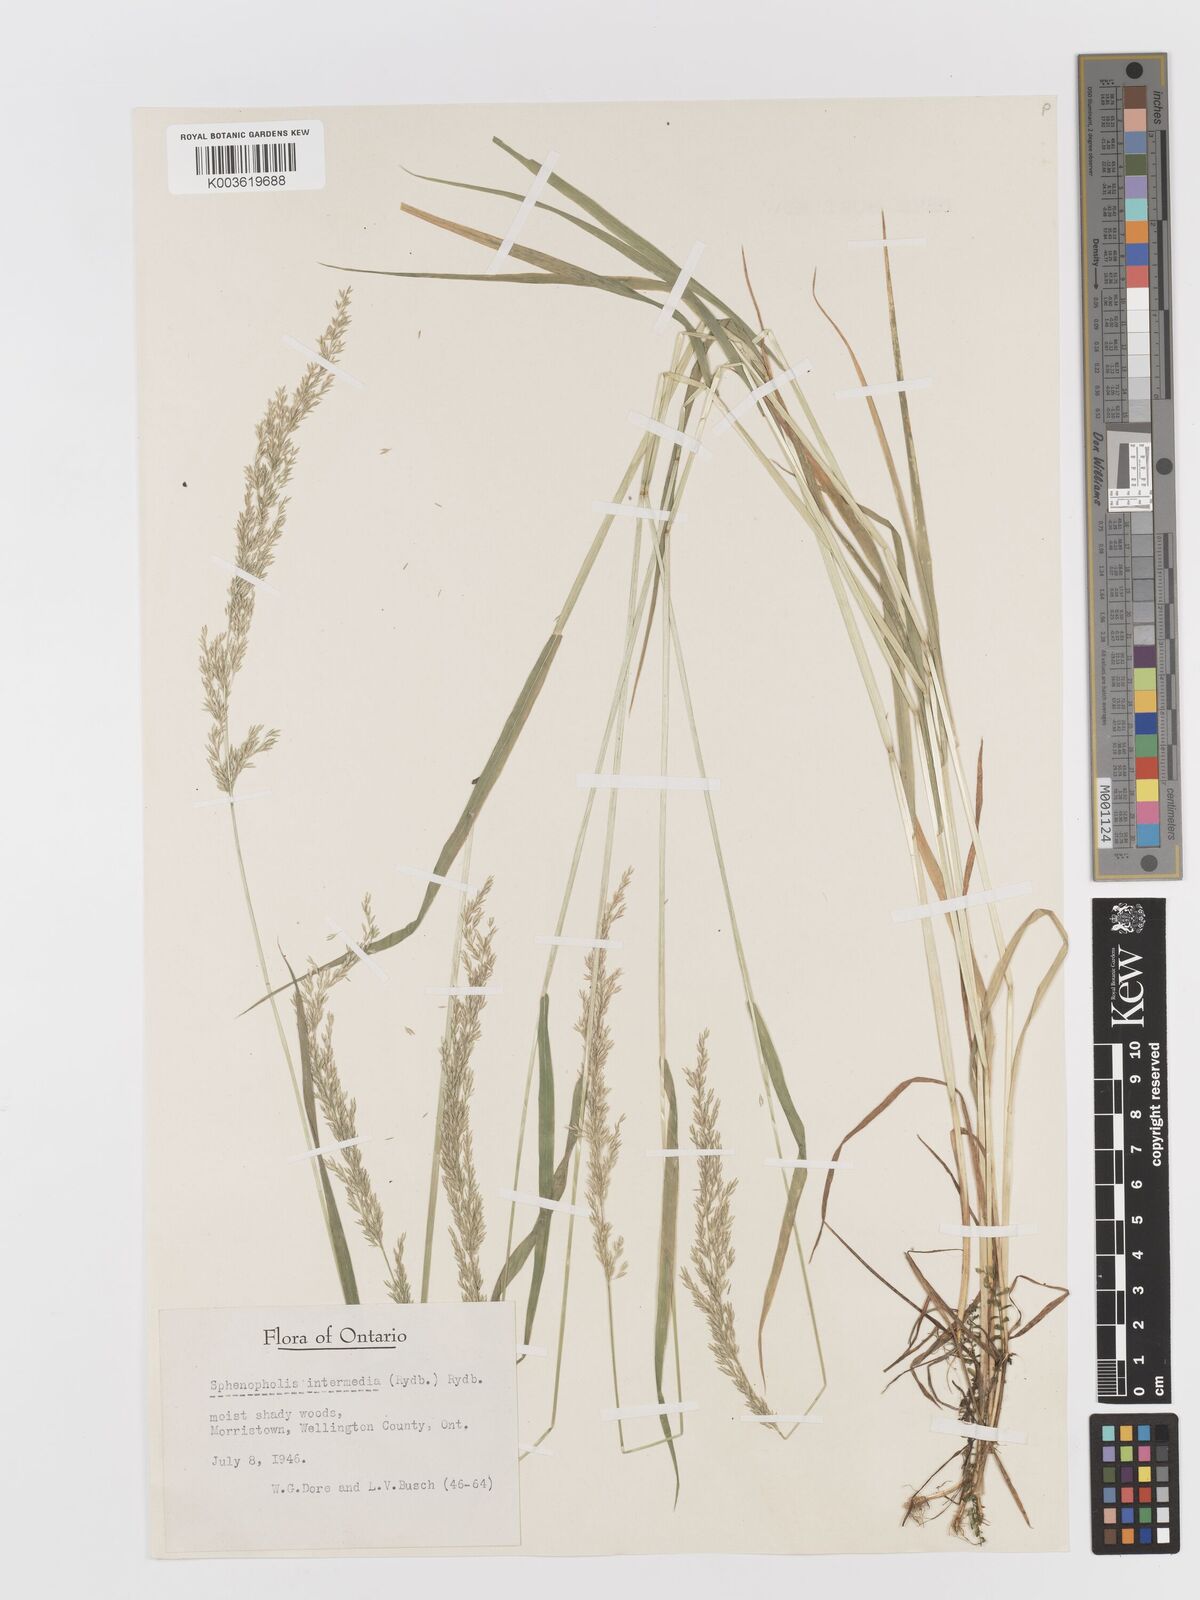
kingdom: Plantae
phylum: Tracheophyta
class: Liliopsida
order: Poales
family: Poaceae
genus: Sphenopholis
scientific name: Sphenopholis obtusata
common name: Prairie grass
